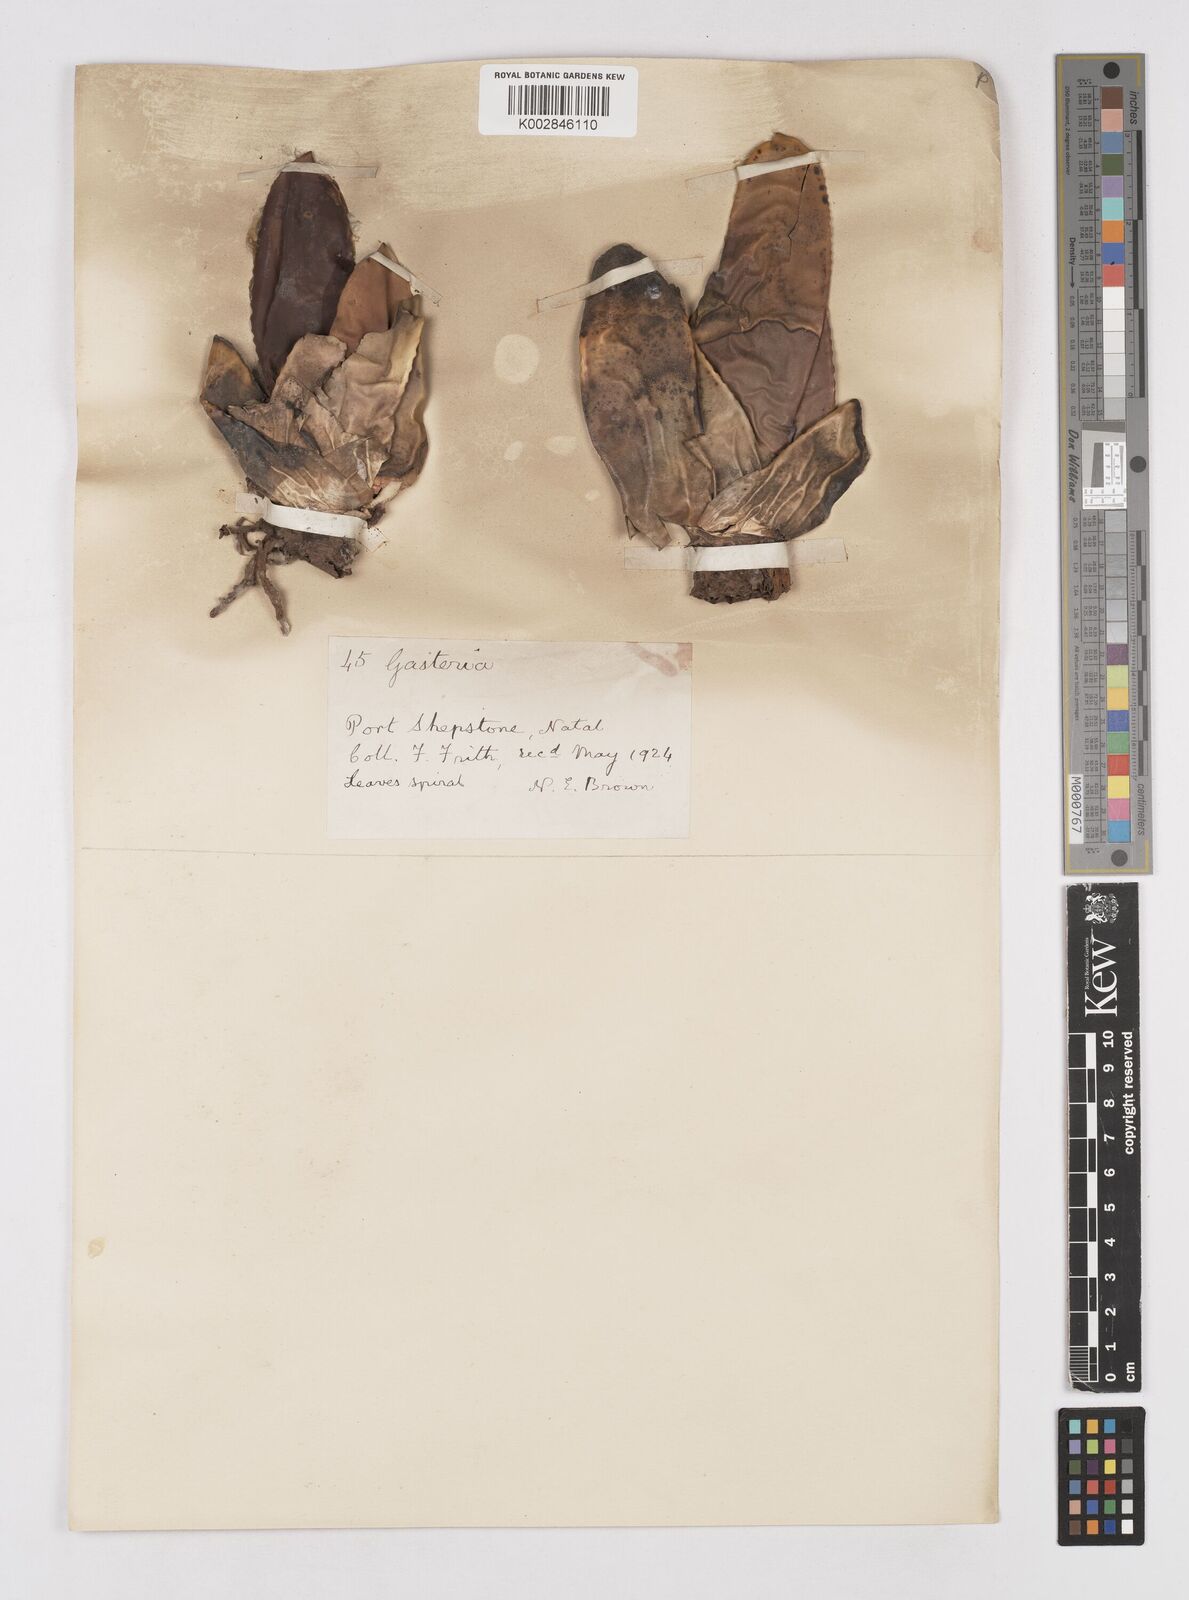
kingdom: Plantae
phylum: Tracheophyta
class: Liliopsida
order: Asparagales
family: Asphodelaceae
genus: Gasteria
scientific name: Gasteria
